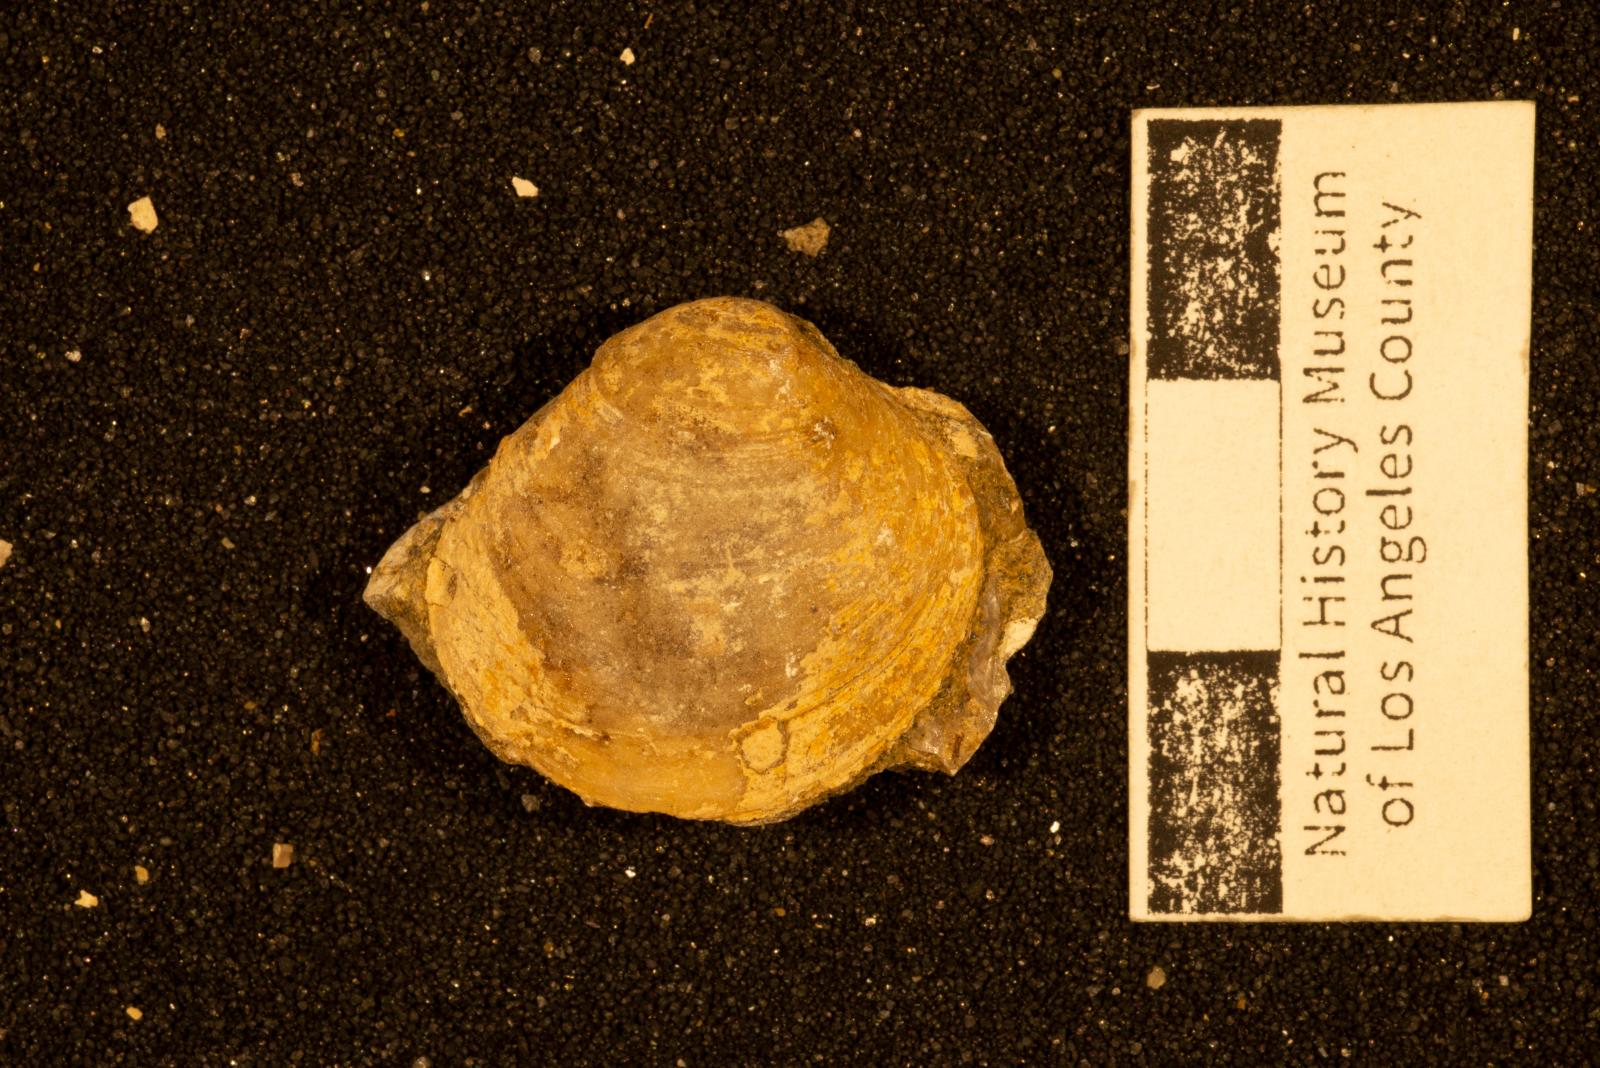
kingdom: Animalia
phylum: Mollusca
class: Bivalvia
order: Venerida
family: Veneridae
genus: Paraesa
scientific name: Paraesa
